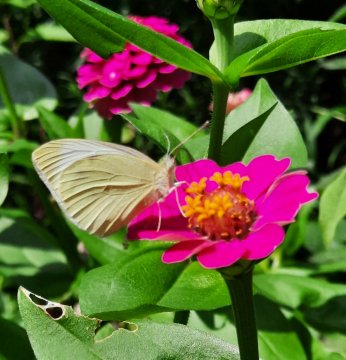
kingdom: Animalia
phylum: Arthropoda
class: Insecta
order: Lepidoptera
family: Pieridae
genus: Pieris
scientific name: Pieris rapae
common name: Cabbage White
